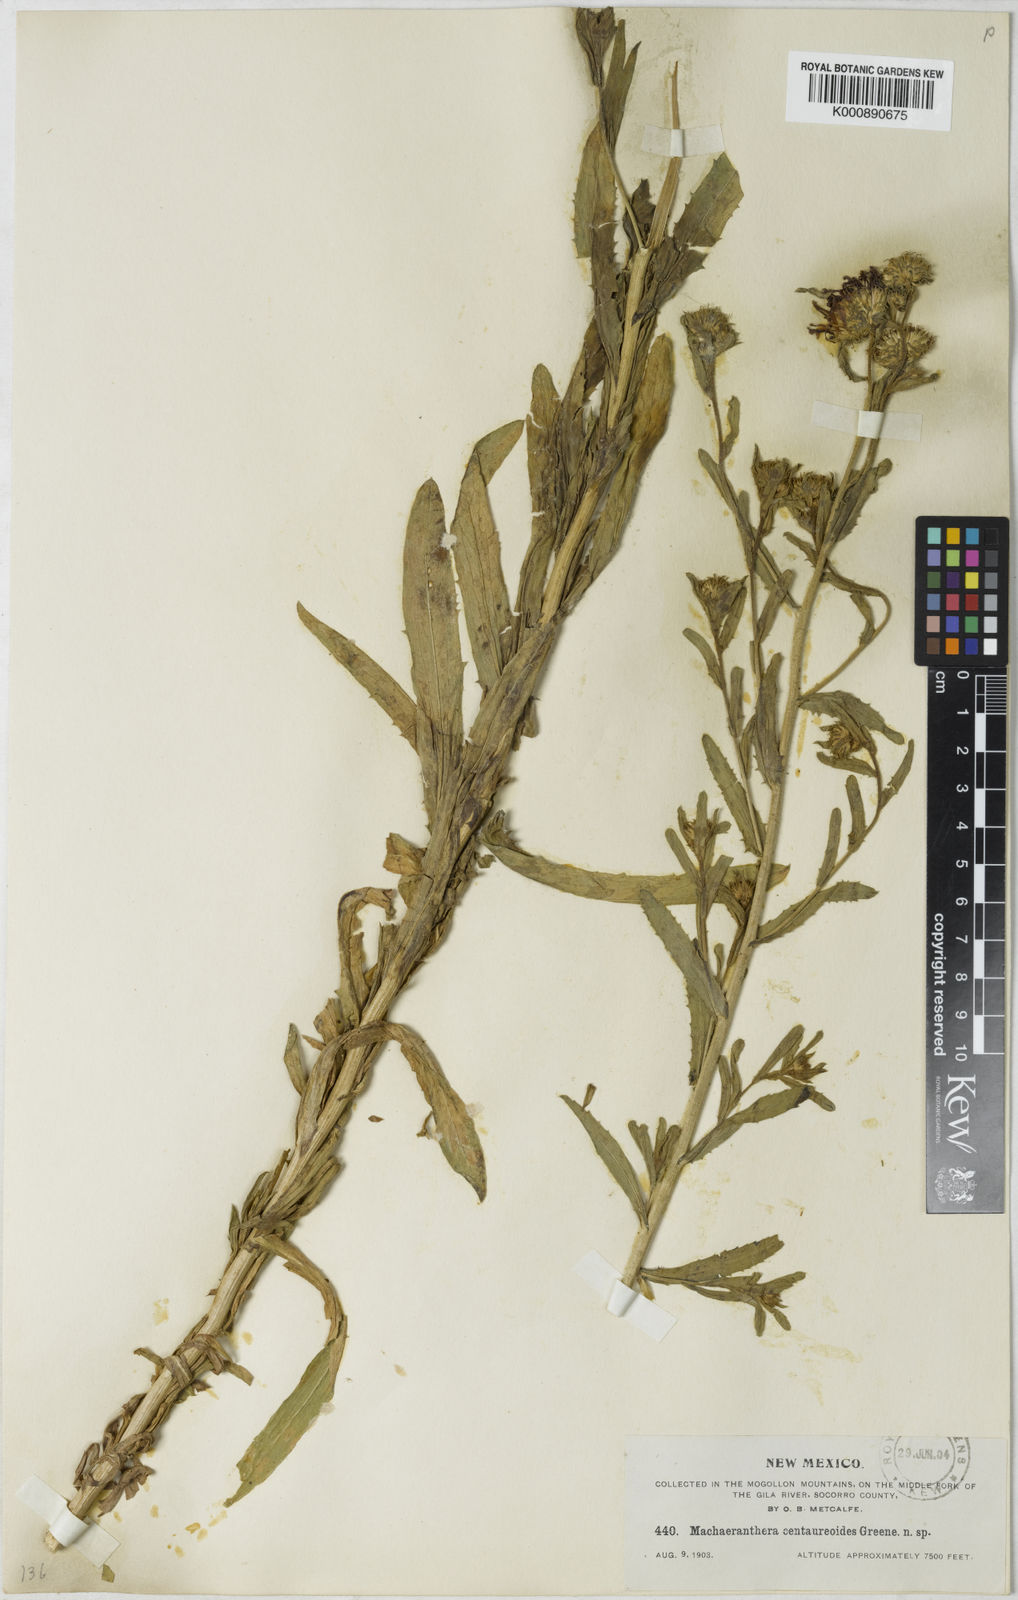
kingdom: Plantae
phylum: Tracheophyta
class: Magnoliopsida
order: Asterales
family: Asteraceae
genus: Aster
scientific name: Aster
